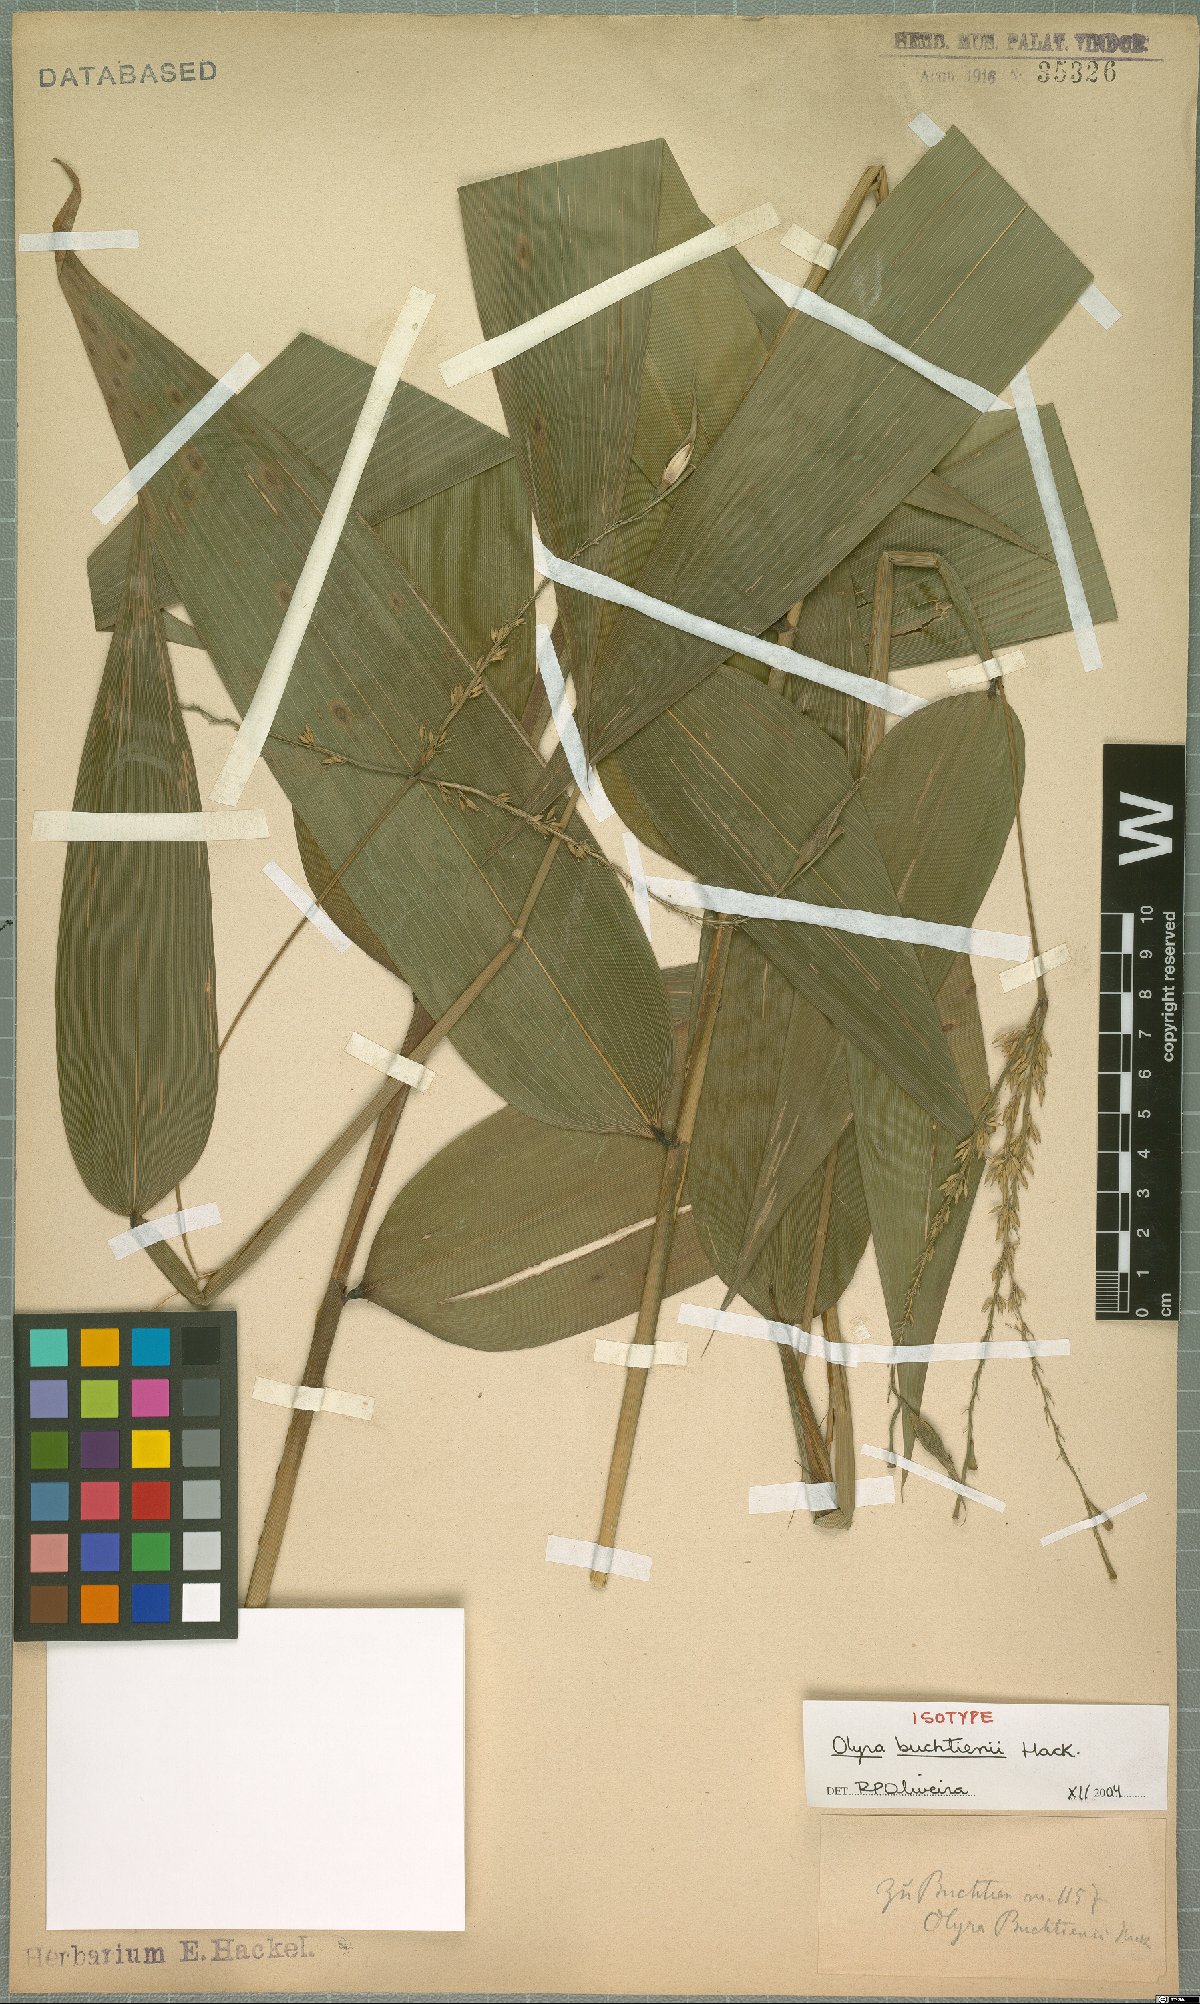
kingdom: Plantae
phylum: Tracheophyta
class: Liliopsida
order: Poales
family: Poaceae
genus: Olyra
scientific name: Olyra buchtienii
